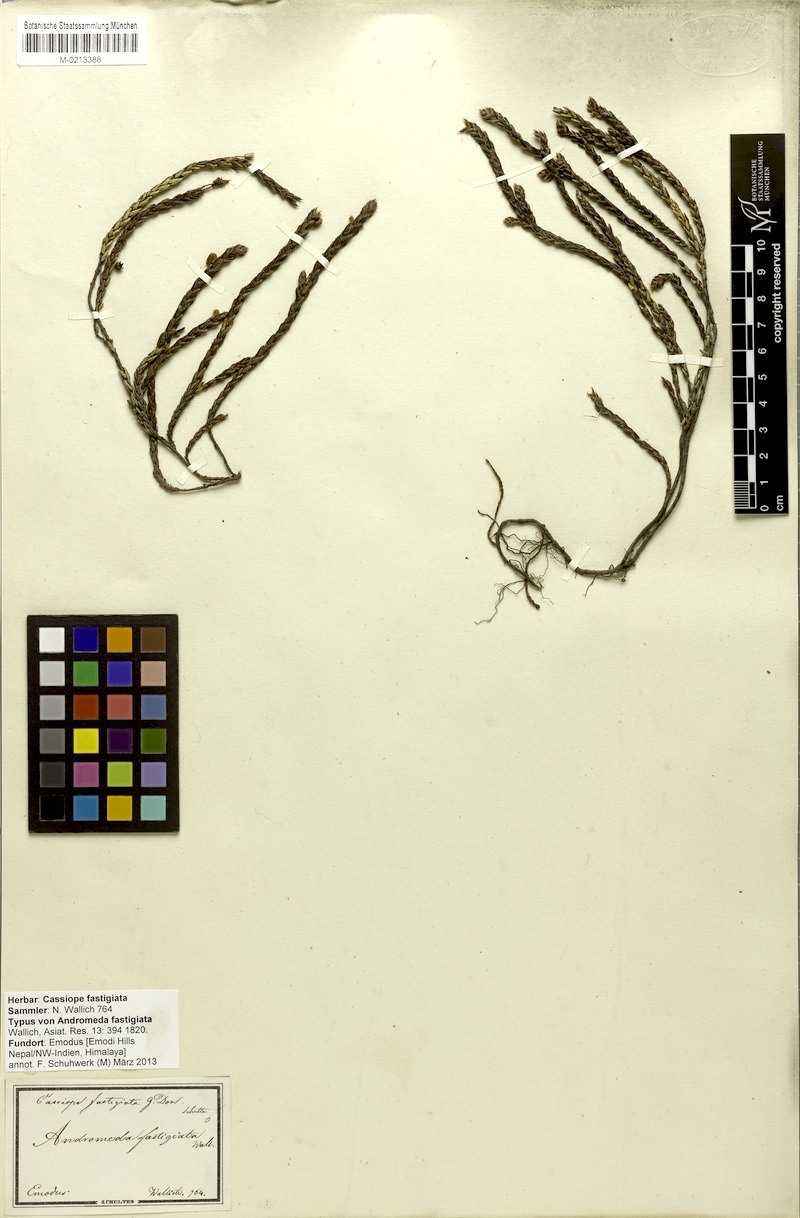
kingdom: Plantae
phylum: Tracheophyta
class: Magnoliopsida
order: Ericales
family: Ericaceae
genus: Cassiope
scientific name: Cassiope fastigiata
